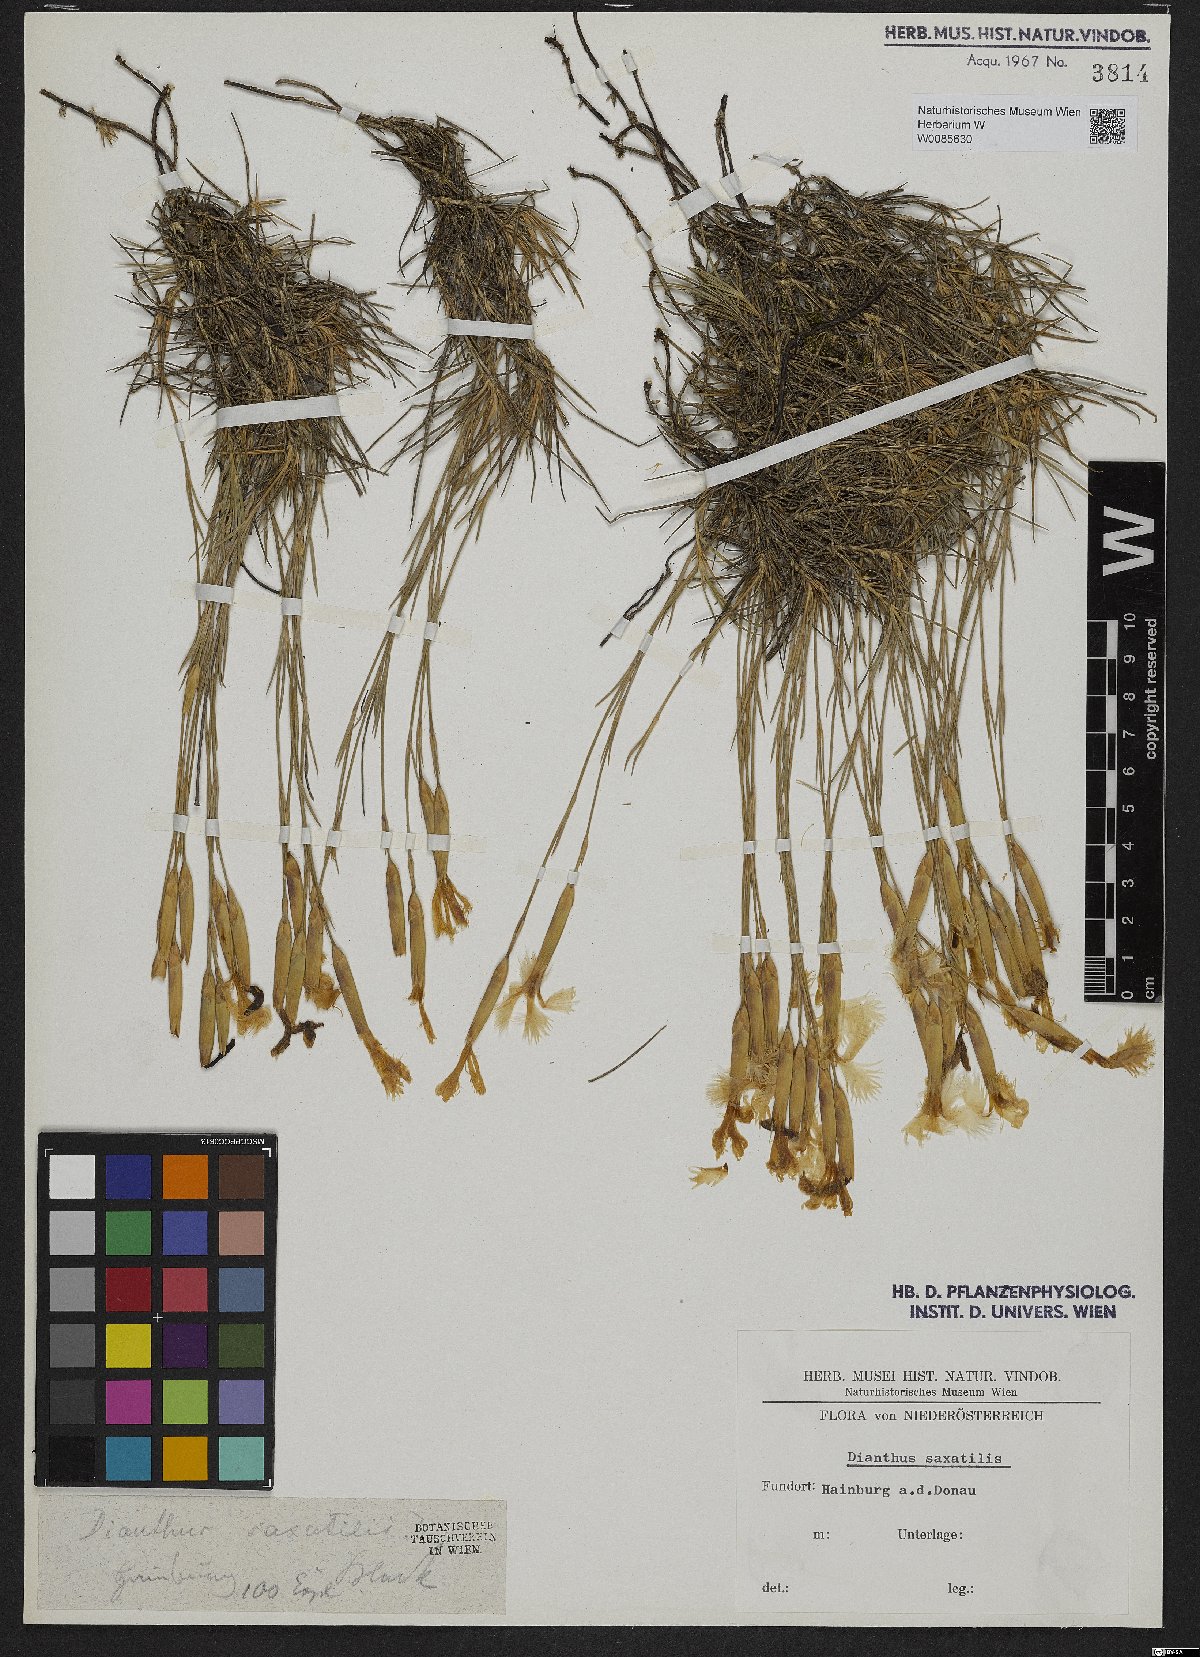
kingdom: Plantae
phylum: Tracheophyta
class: Magnoliopsida
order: Caryophyllales
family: Caryophyllaceae
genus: Dianthus
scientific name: Dianthus hyssopifolius
